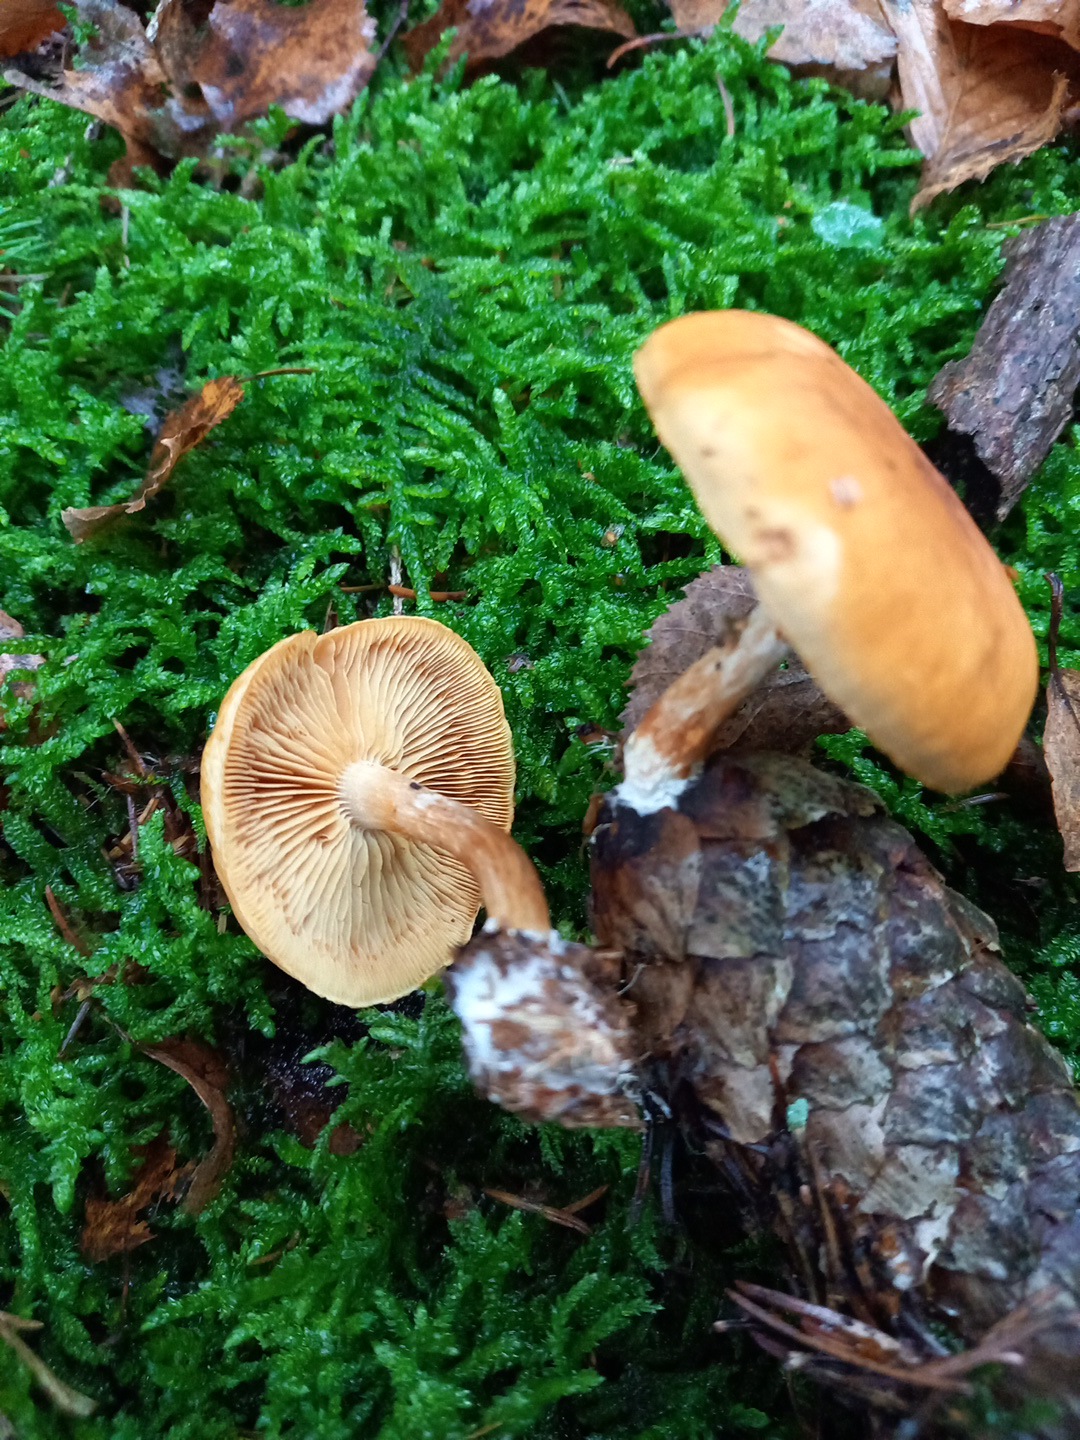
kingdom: Fungi
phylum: Basidiomycota
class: Agaricomycetes
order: Agaricales
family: Hymenogastraceae
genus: Gymnopilus
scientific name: Gymnopilus penetrans
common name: plettet flammehat
